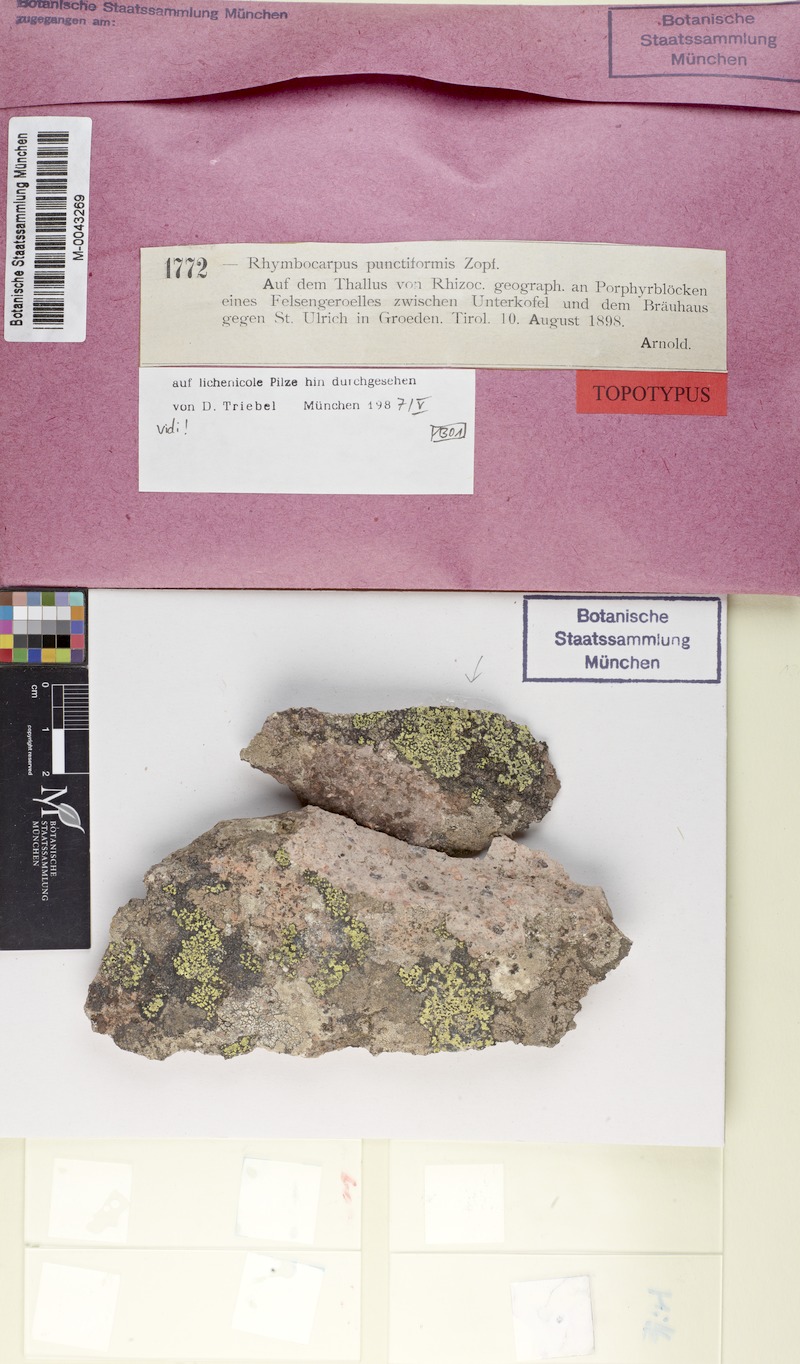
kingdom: Fungi
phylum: Ascomycota
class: Leotiomycetes
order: Helotiales
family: Cordieritidaceae
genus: Rhymbocarpus
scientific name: Rhymbocarpus geographici
